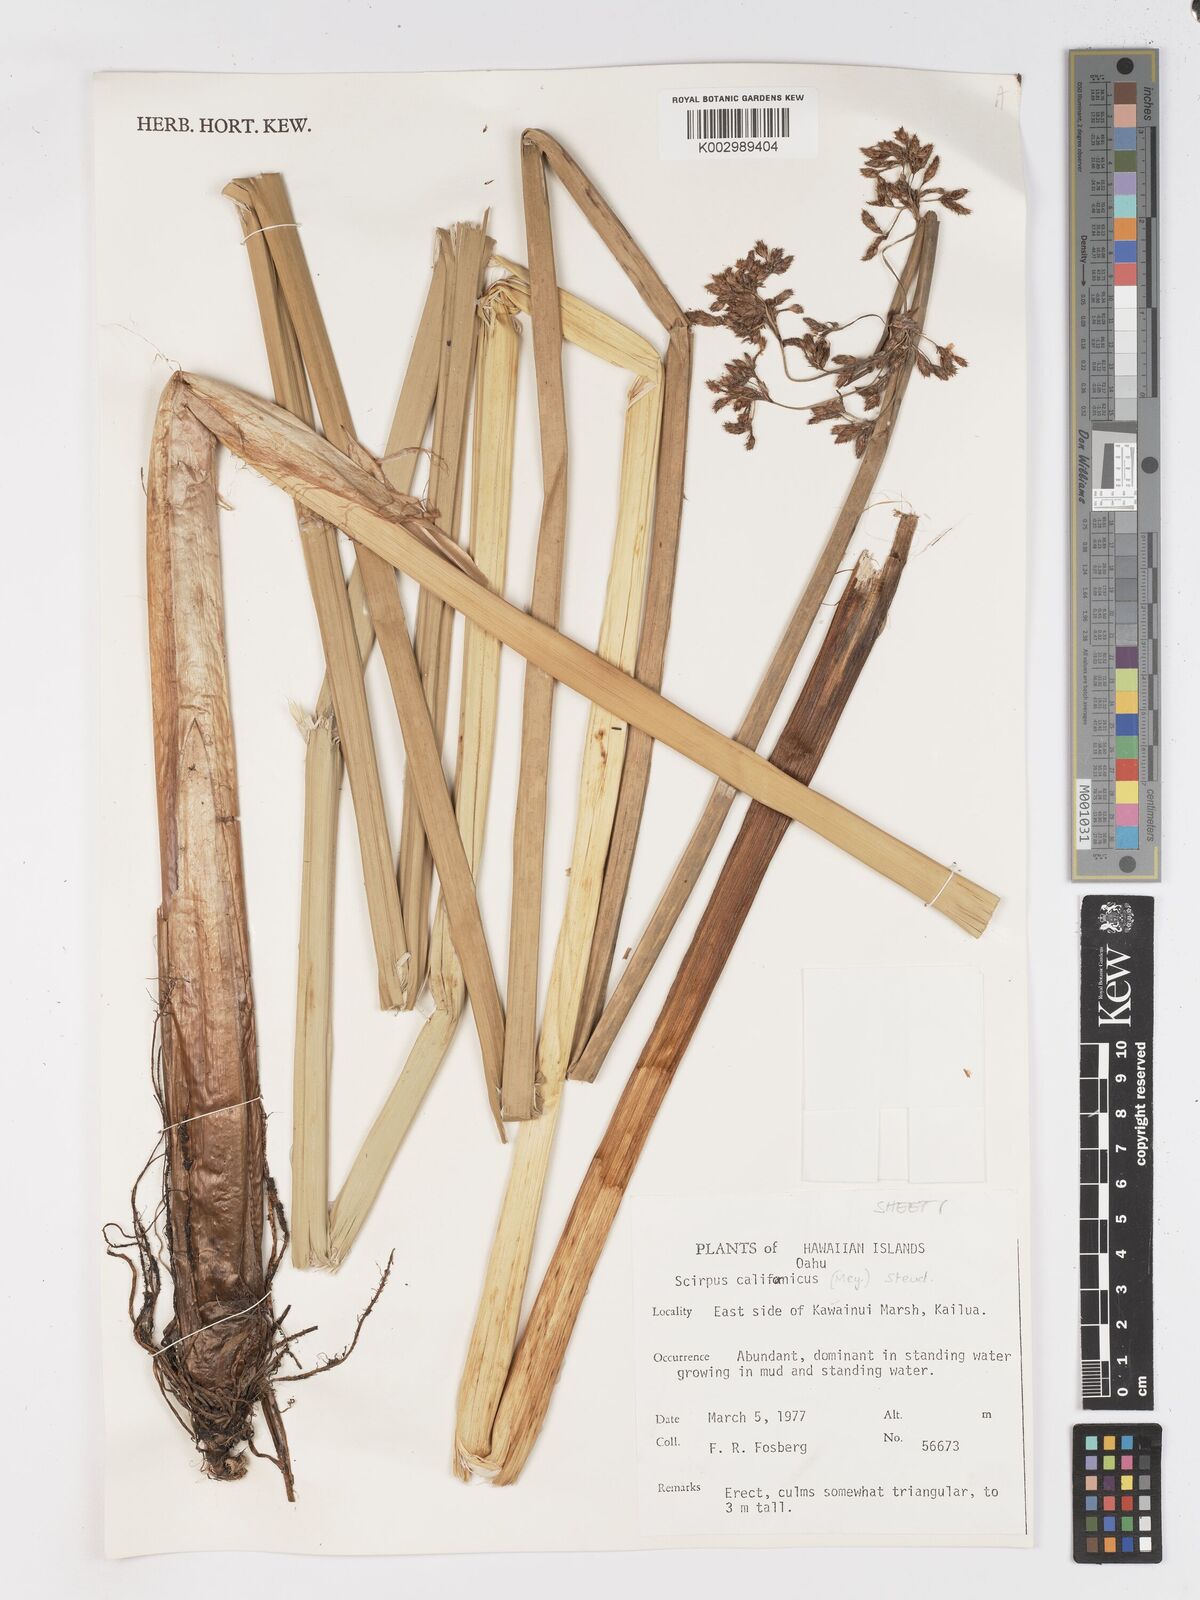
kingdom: Plantae
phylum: Tracheophyta
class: Liliopsida
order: Poales
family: Cyperaceae
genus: Schoenoplectus
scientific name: Schoenoplectus californicus
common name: California bulrush
